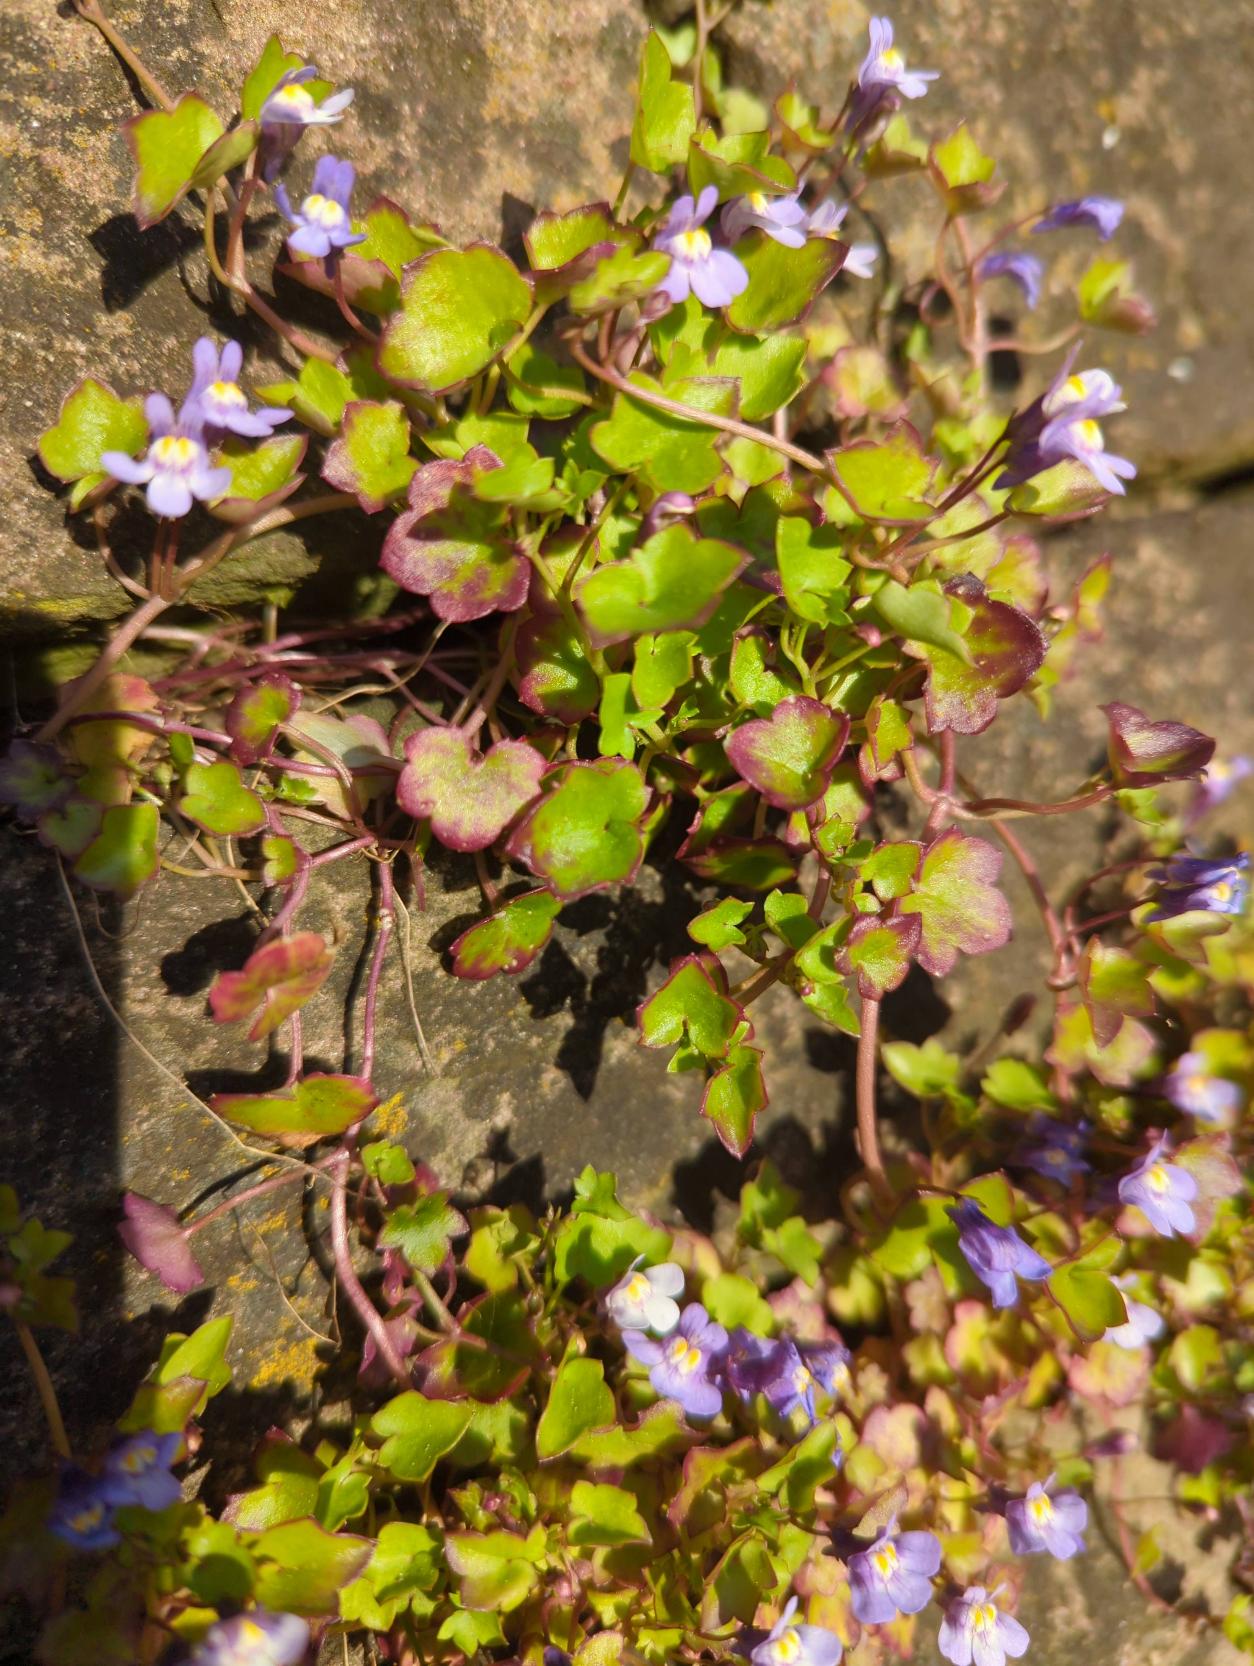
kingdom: Plantae
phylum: Tracheophyta
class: Magnoliopsida
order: Lamiales
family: Plantaginaceae
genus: Cymbalaria
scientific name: Cymbalaria muralis
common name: Vedbend-torskemund
